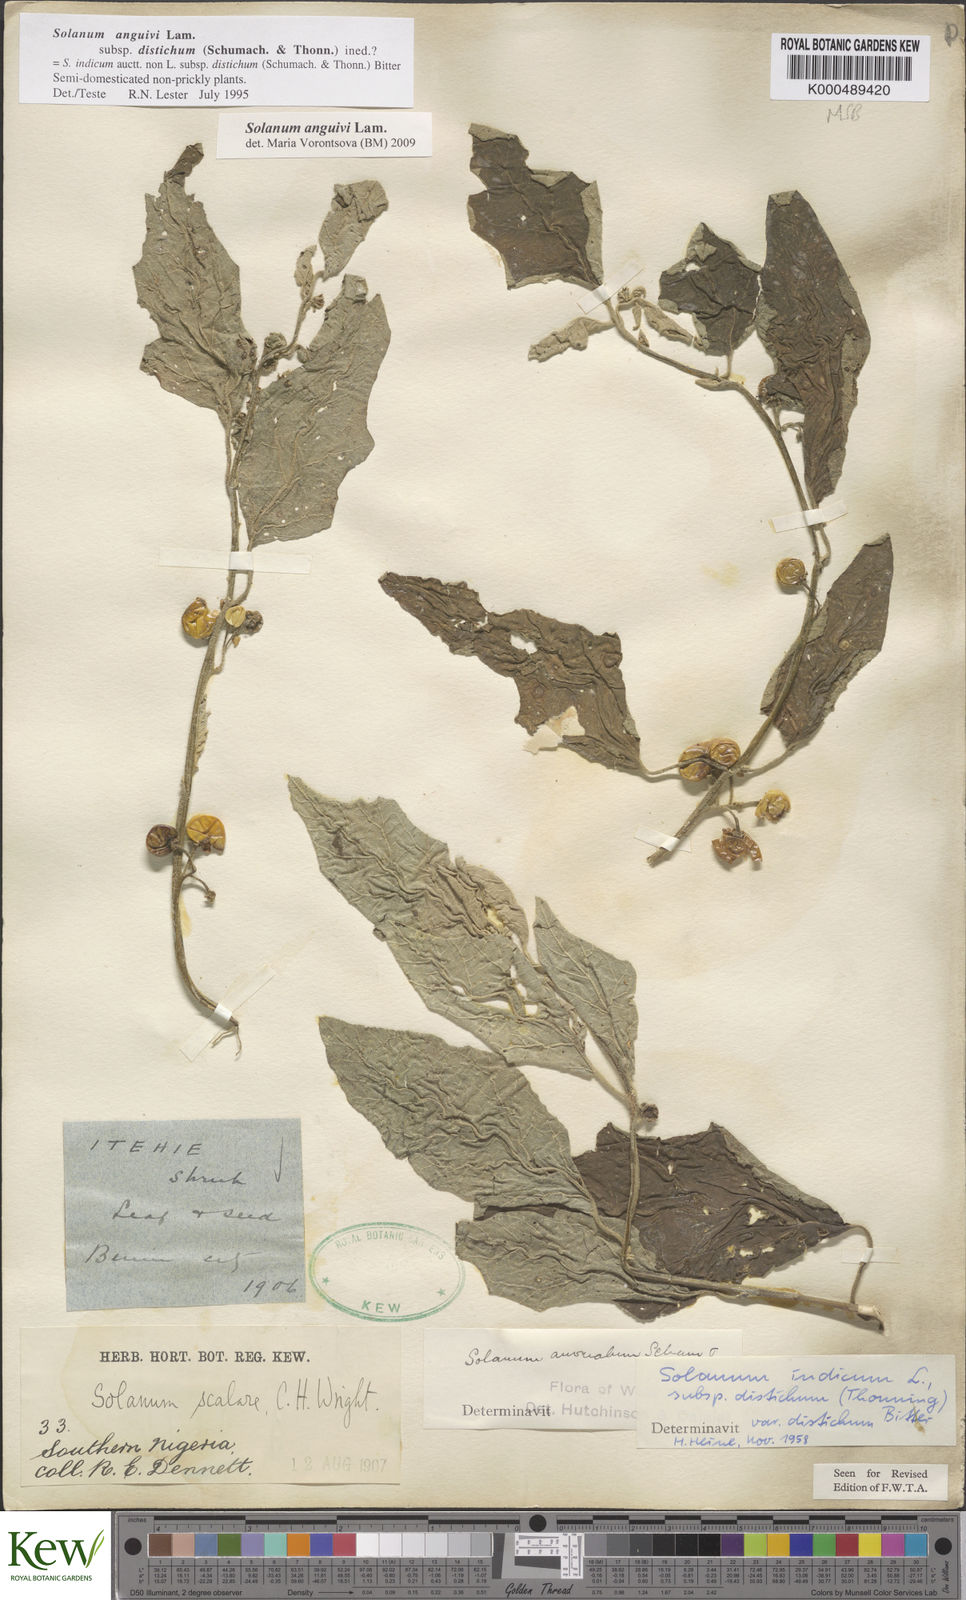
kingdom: Plantae
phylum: Tracheophyta
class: Magnoliopsida
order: Solanales
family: Solanaceae
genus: Solanum
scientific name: Solanum anguivi
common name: Forest bitterberry
